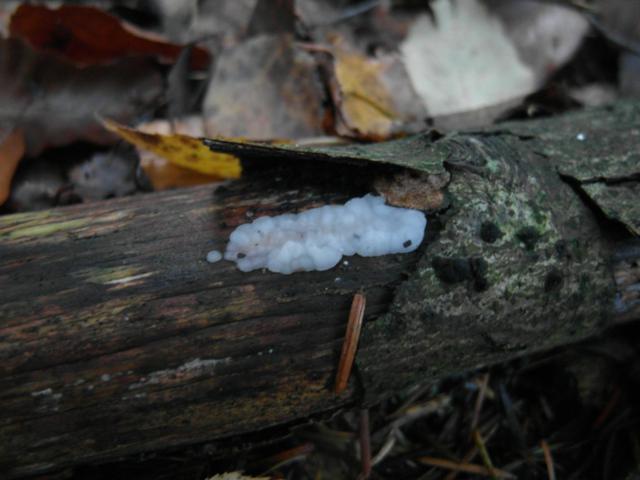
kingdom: Fungi
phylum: Basidiomycota
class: Agaricomycetes
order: Auriculariales
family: Auriculariaceae
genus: Exidia
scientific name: Exidia thuretiana
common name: hvidlig bævretop
